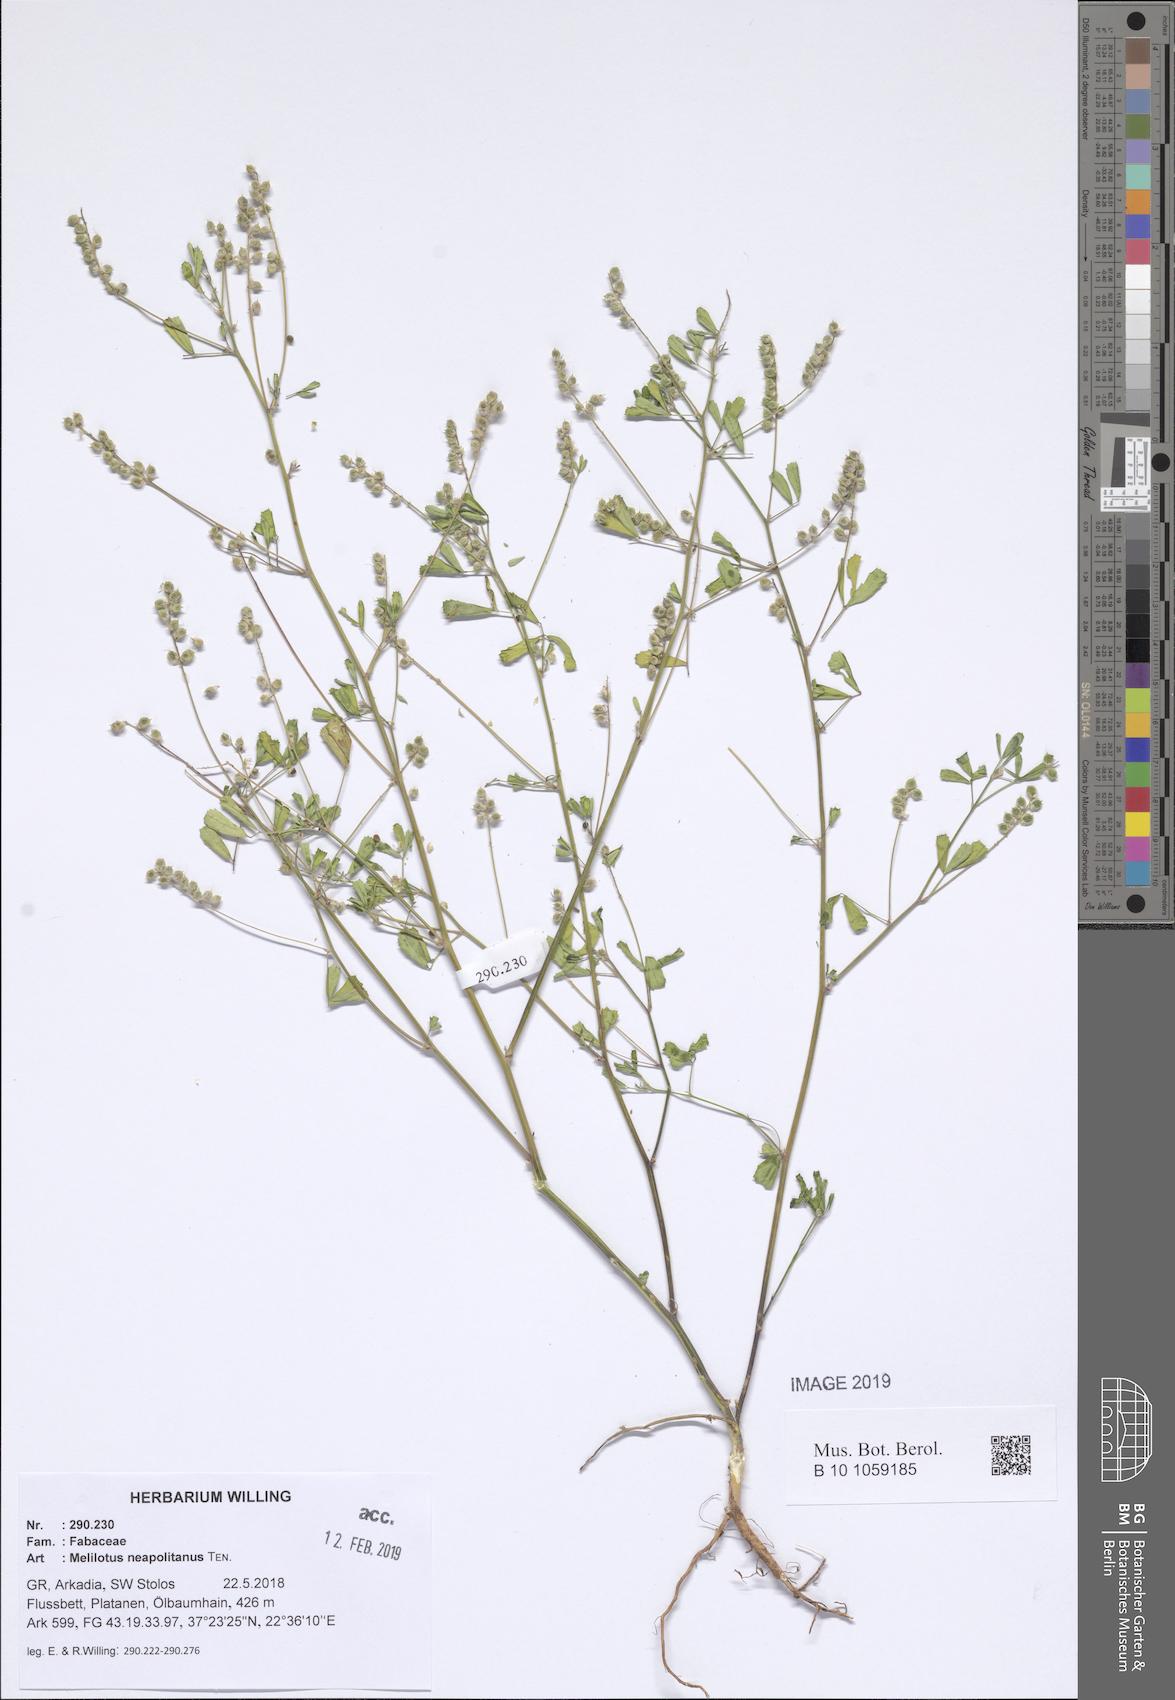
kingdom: Plantae
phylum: Tracheophyta
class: Magnoliopsida
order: Fabales
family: Fabaceae
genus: Melilotus
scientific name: Melilotus neapolitanus
